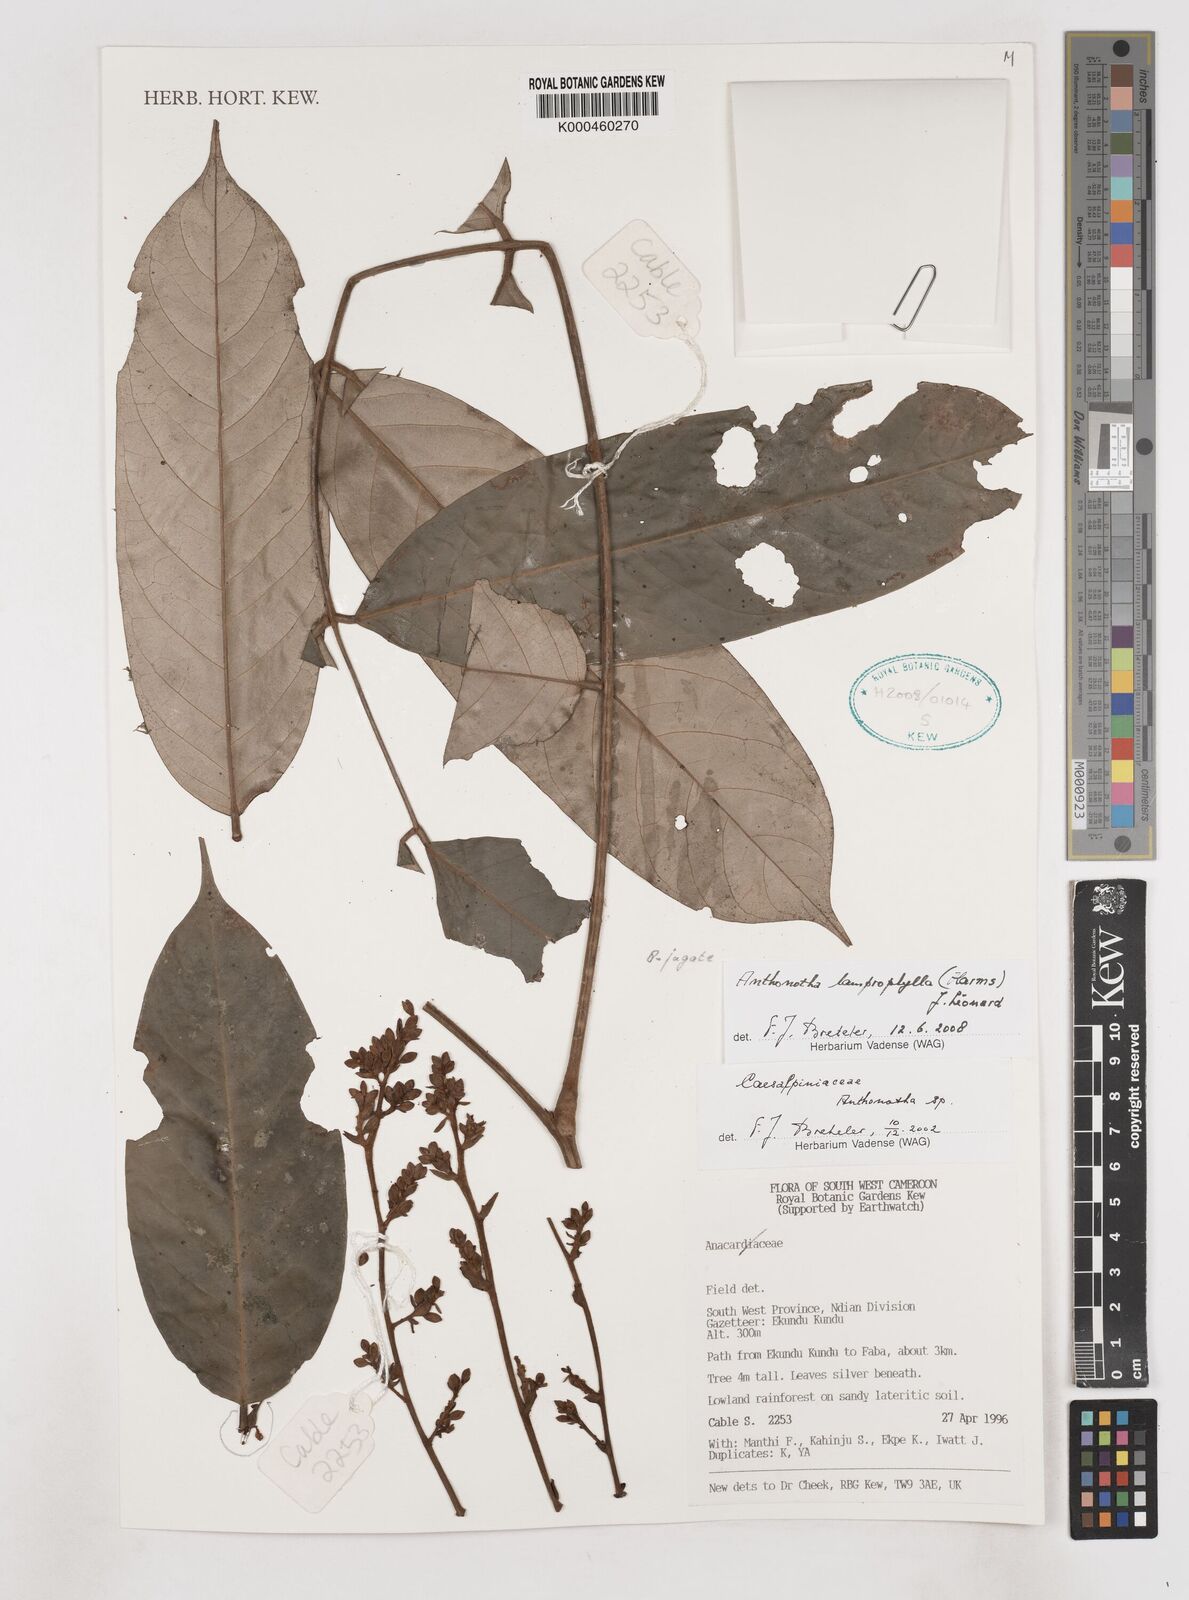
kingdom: Plantae
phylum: Tracheophyta
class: Magnoliopsida
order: Fabales
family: Fabaceae
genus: Anthonotha
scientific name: Anthonotha
